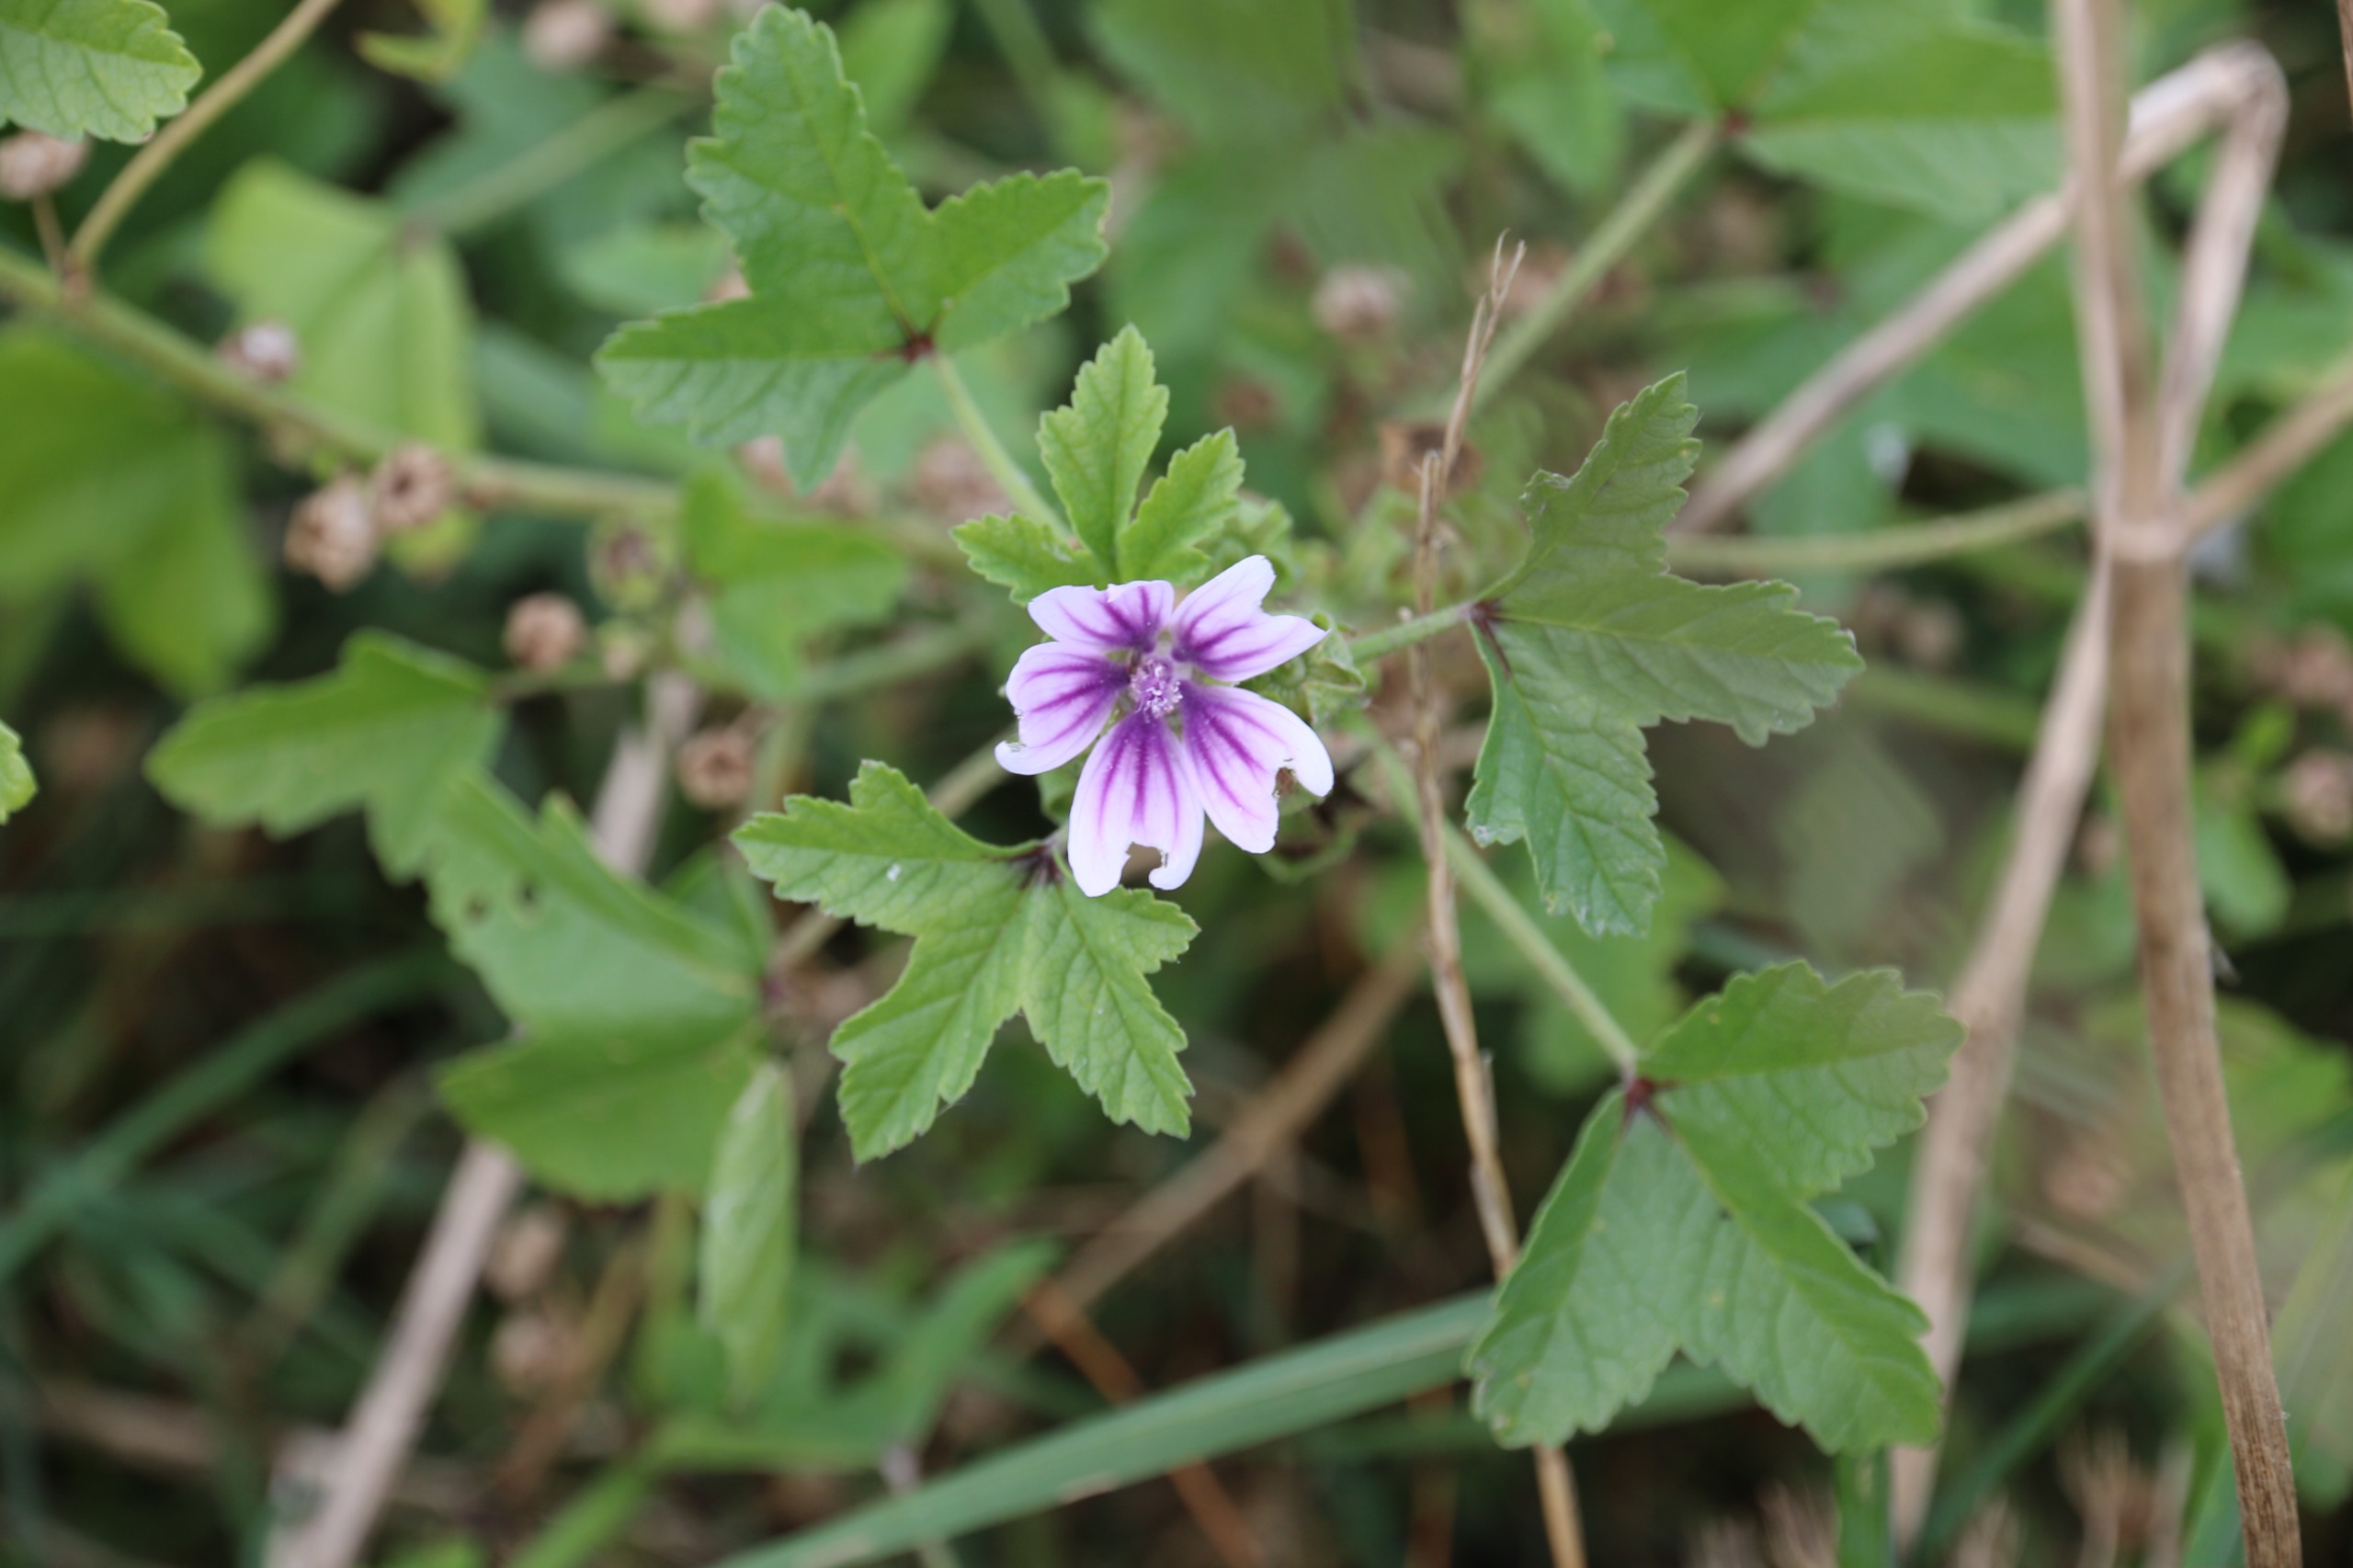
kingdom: Plantae
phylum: Tracheophyta
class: Magnoliopsida
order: Malvales
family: Malvaceae
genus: Malva
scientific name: Malva sylvestris
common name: Almindelig katost
